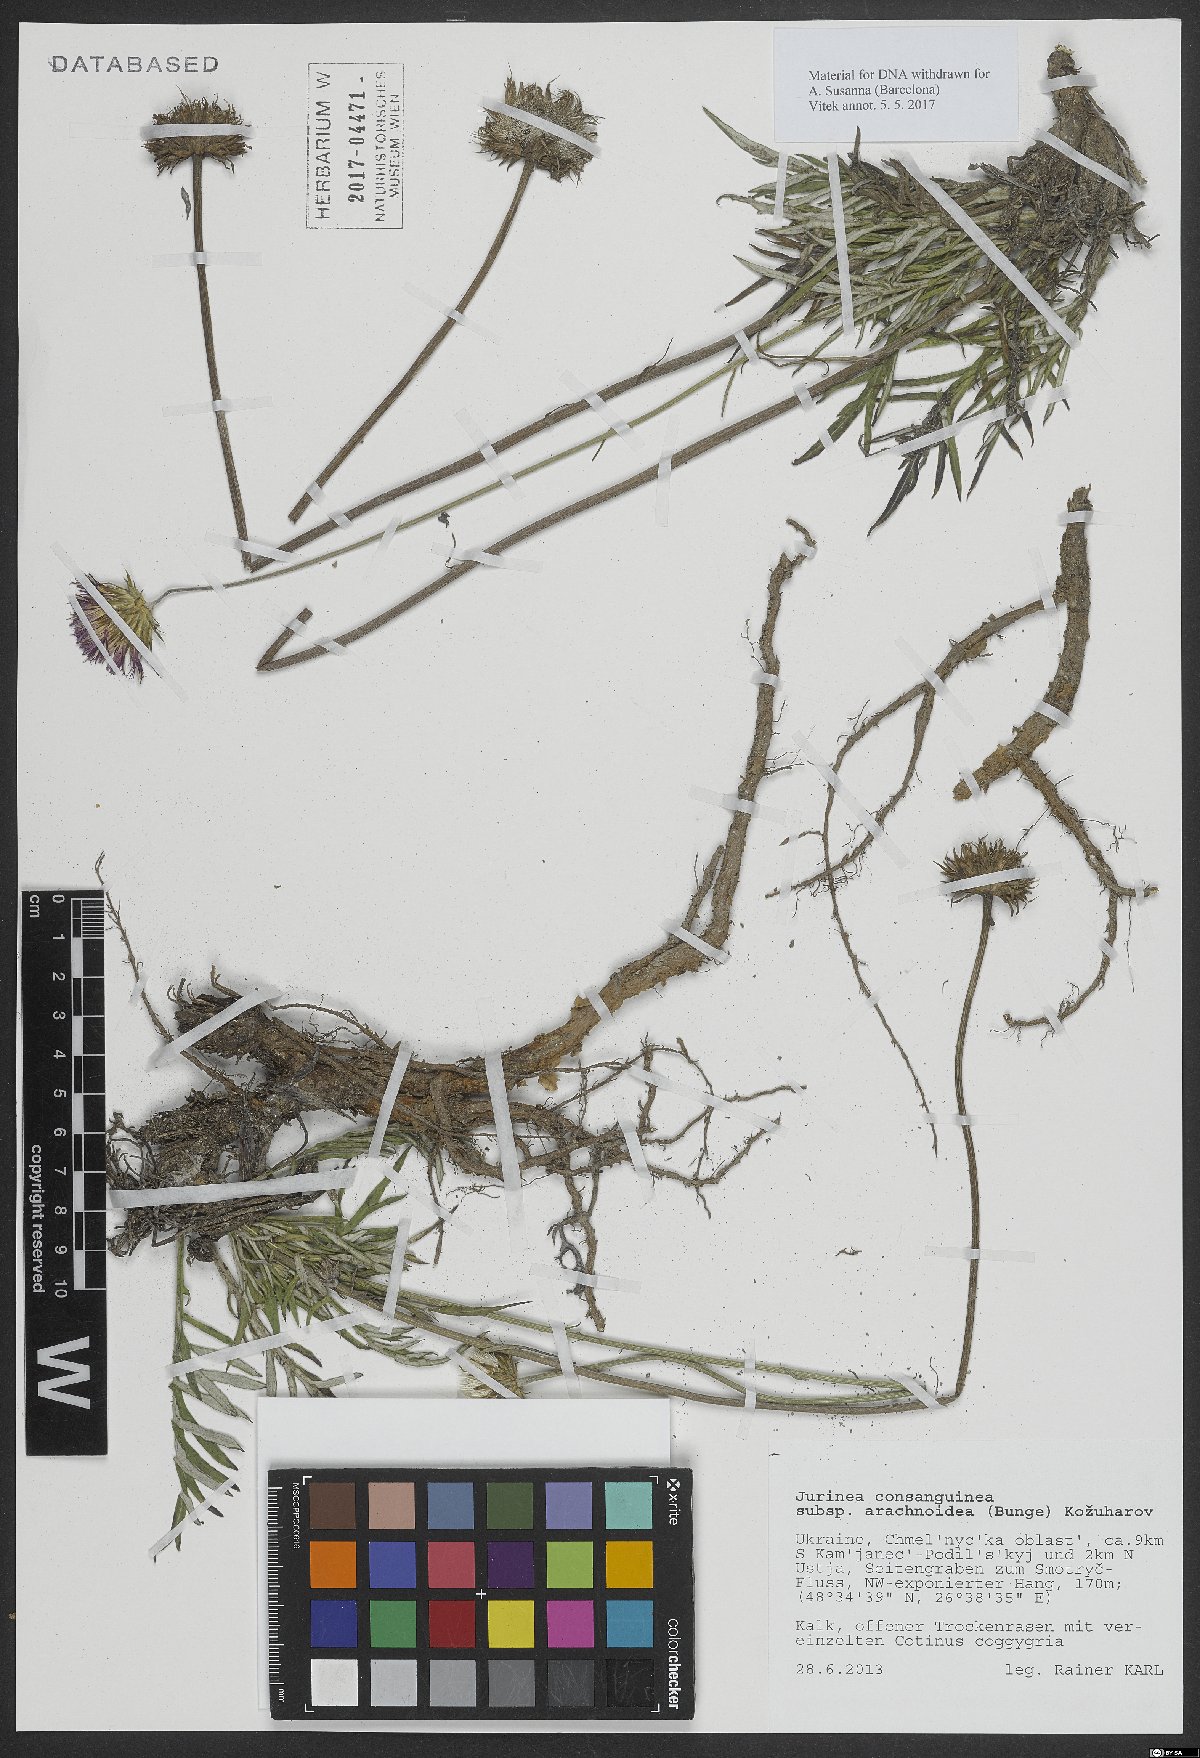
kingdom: Plantae
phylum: Tracheophyta
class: Magnoliopsida
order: Asterales
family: Asteraceae
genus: Jurinea
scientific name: Jurinea arachnoidea
